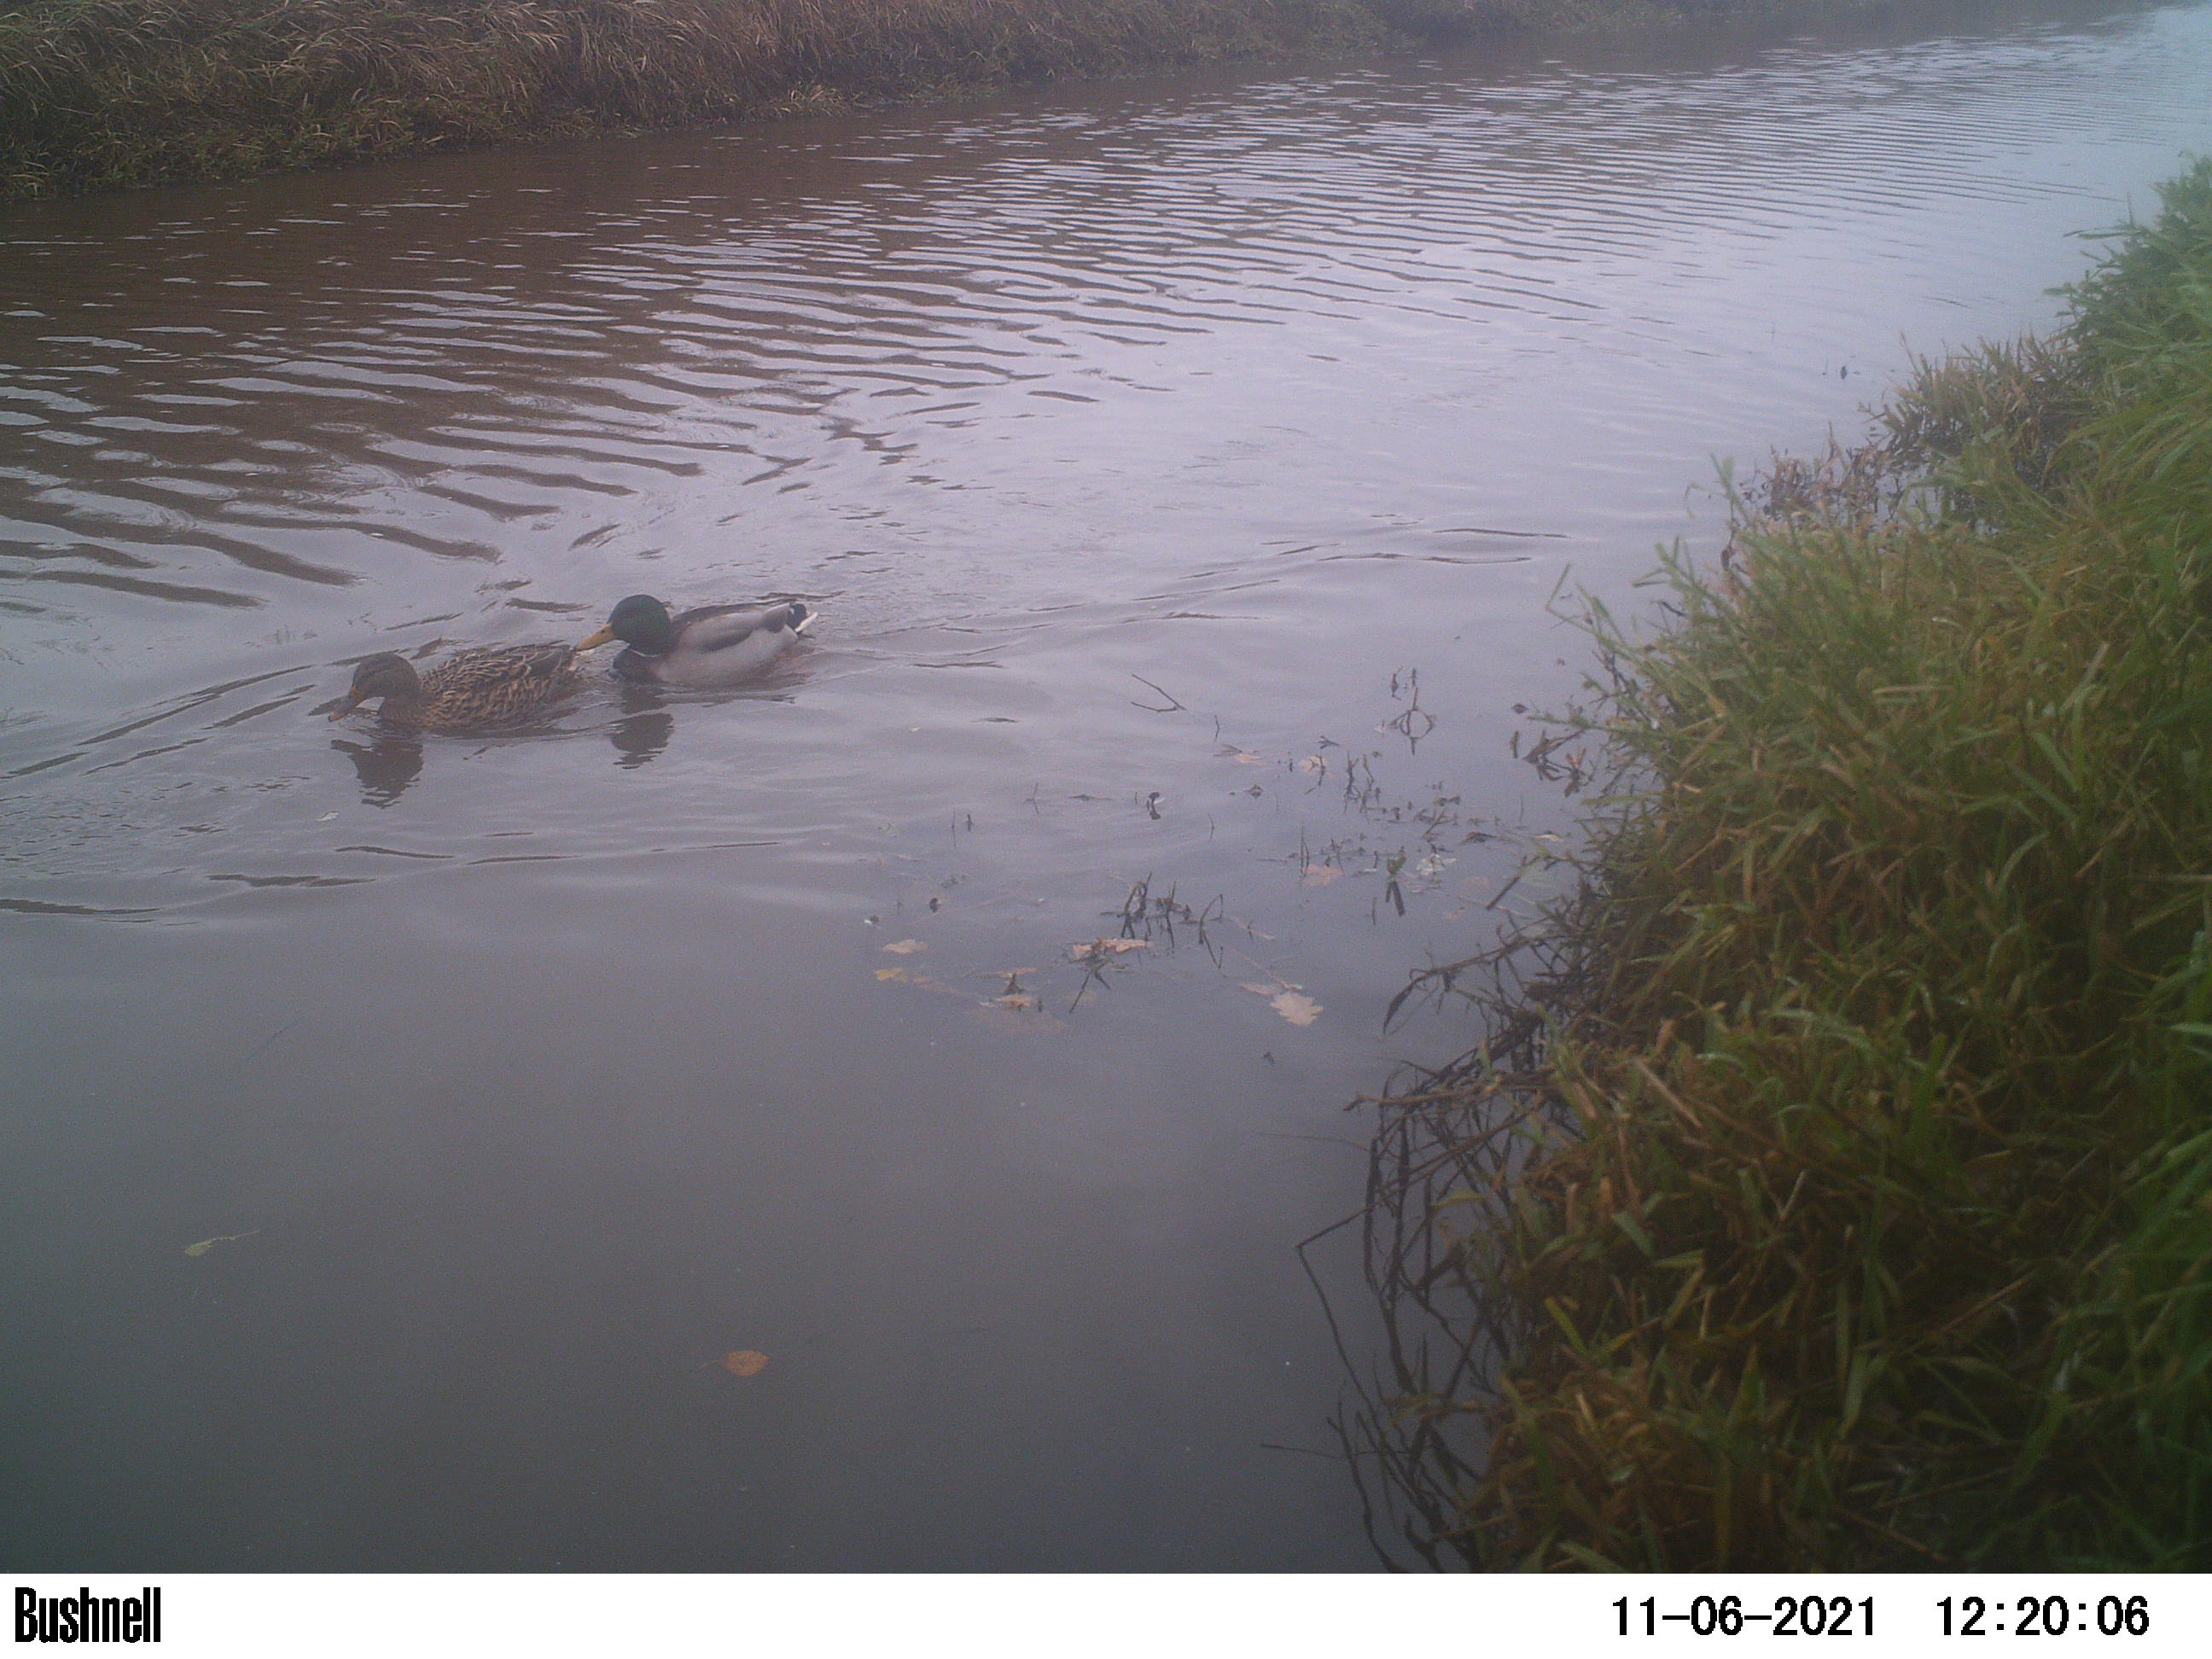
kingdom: Animalia
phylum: Chordata
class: Aves
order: Anseriformes
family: Anatidae
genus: Anas
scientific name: Anas
